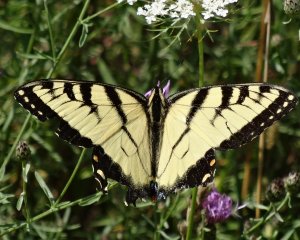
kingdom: Animalia
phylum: Arthropoda
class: Insecta
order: Lepidoptera
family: Papilionidae
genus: Pterourus
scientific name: Pterourus glaucus
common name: Eastern Tiger Swallowtail
